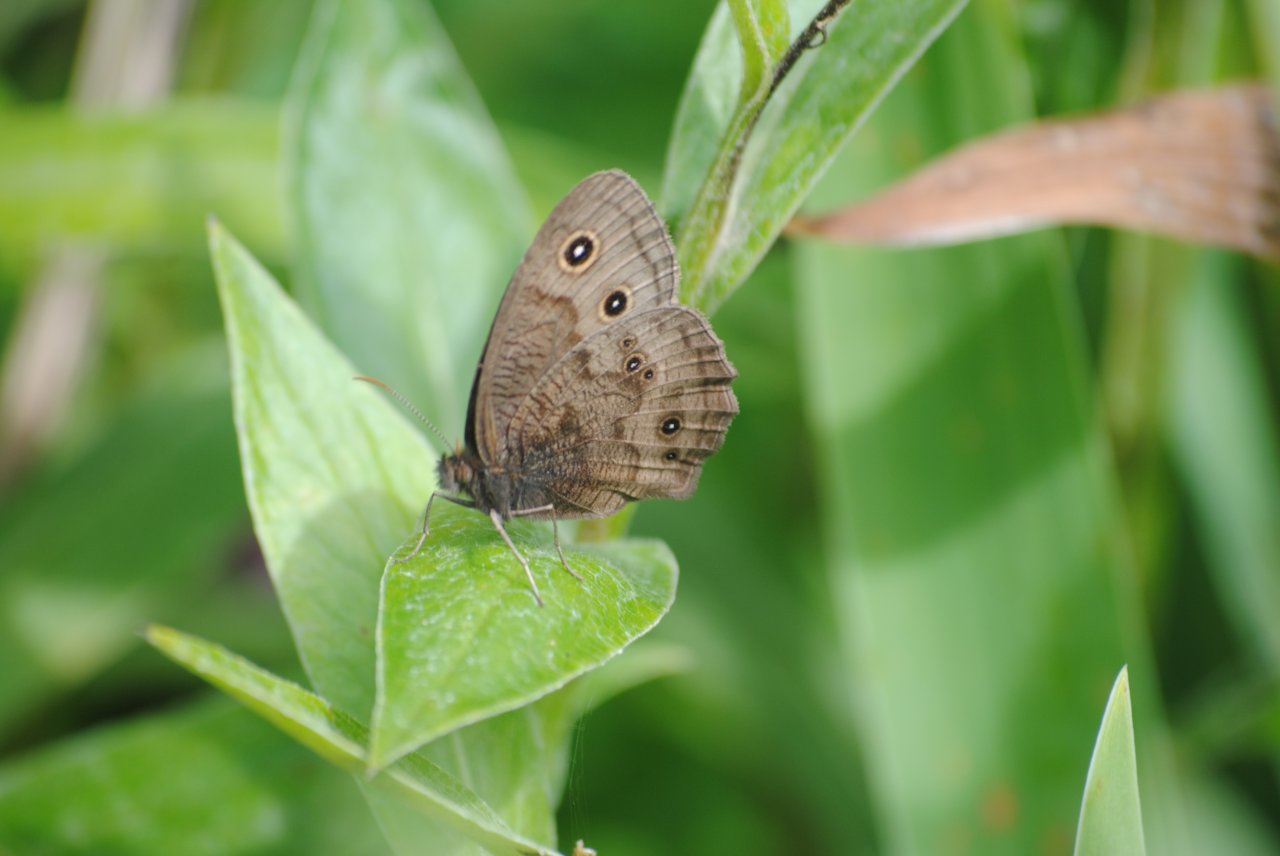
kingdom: Animalia
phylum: Arthropoda
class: Insecta
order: Lepidoptera
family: Nymphalidae
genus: Cercyonis
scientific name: Cercyonis pegala
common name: Common Wood-Nymph
